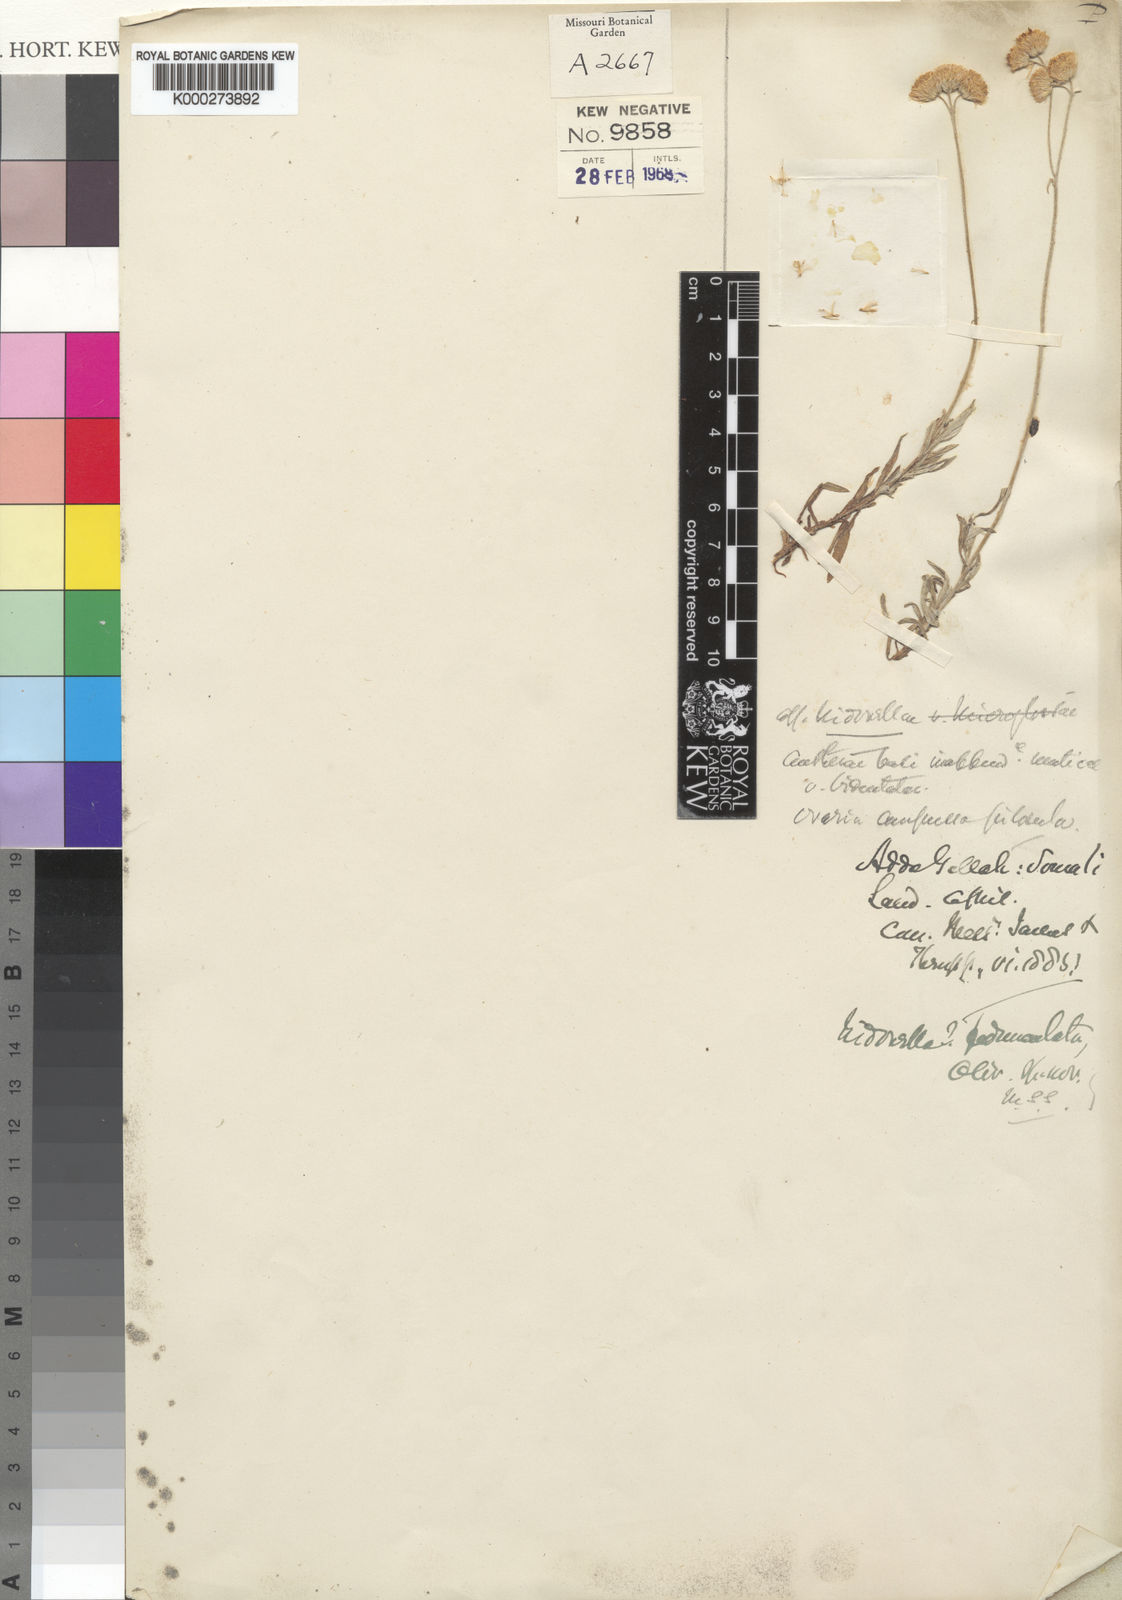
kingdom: Plantae
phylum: Tracheophyta
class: Magnoliopsida
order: Asterales
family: Asteraceae
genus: Conyza
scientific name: Conyza
